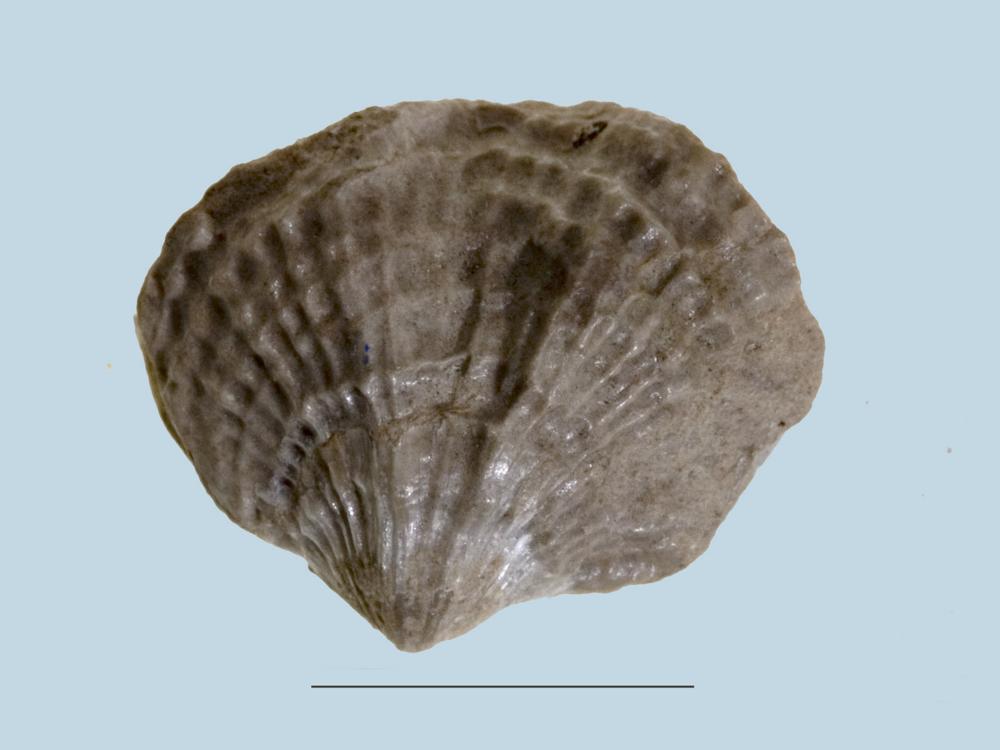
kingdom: Animalia
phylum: Brachiopoda
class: Rhynchonellata
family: Atrypidae
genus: Atrypa
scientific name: Atrypa
